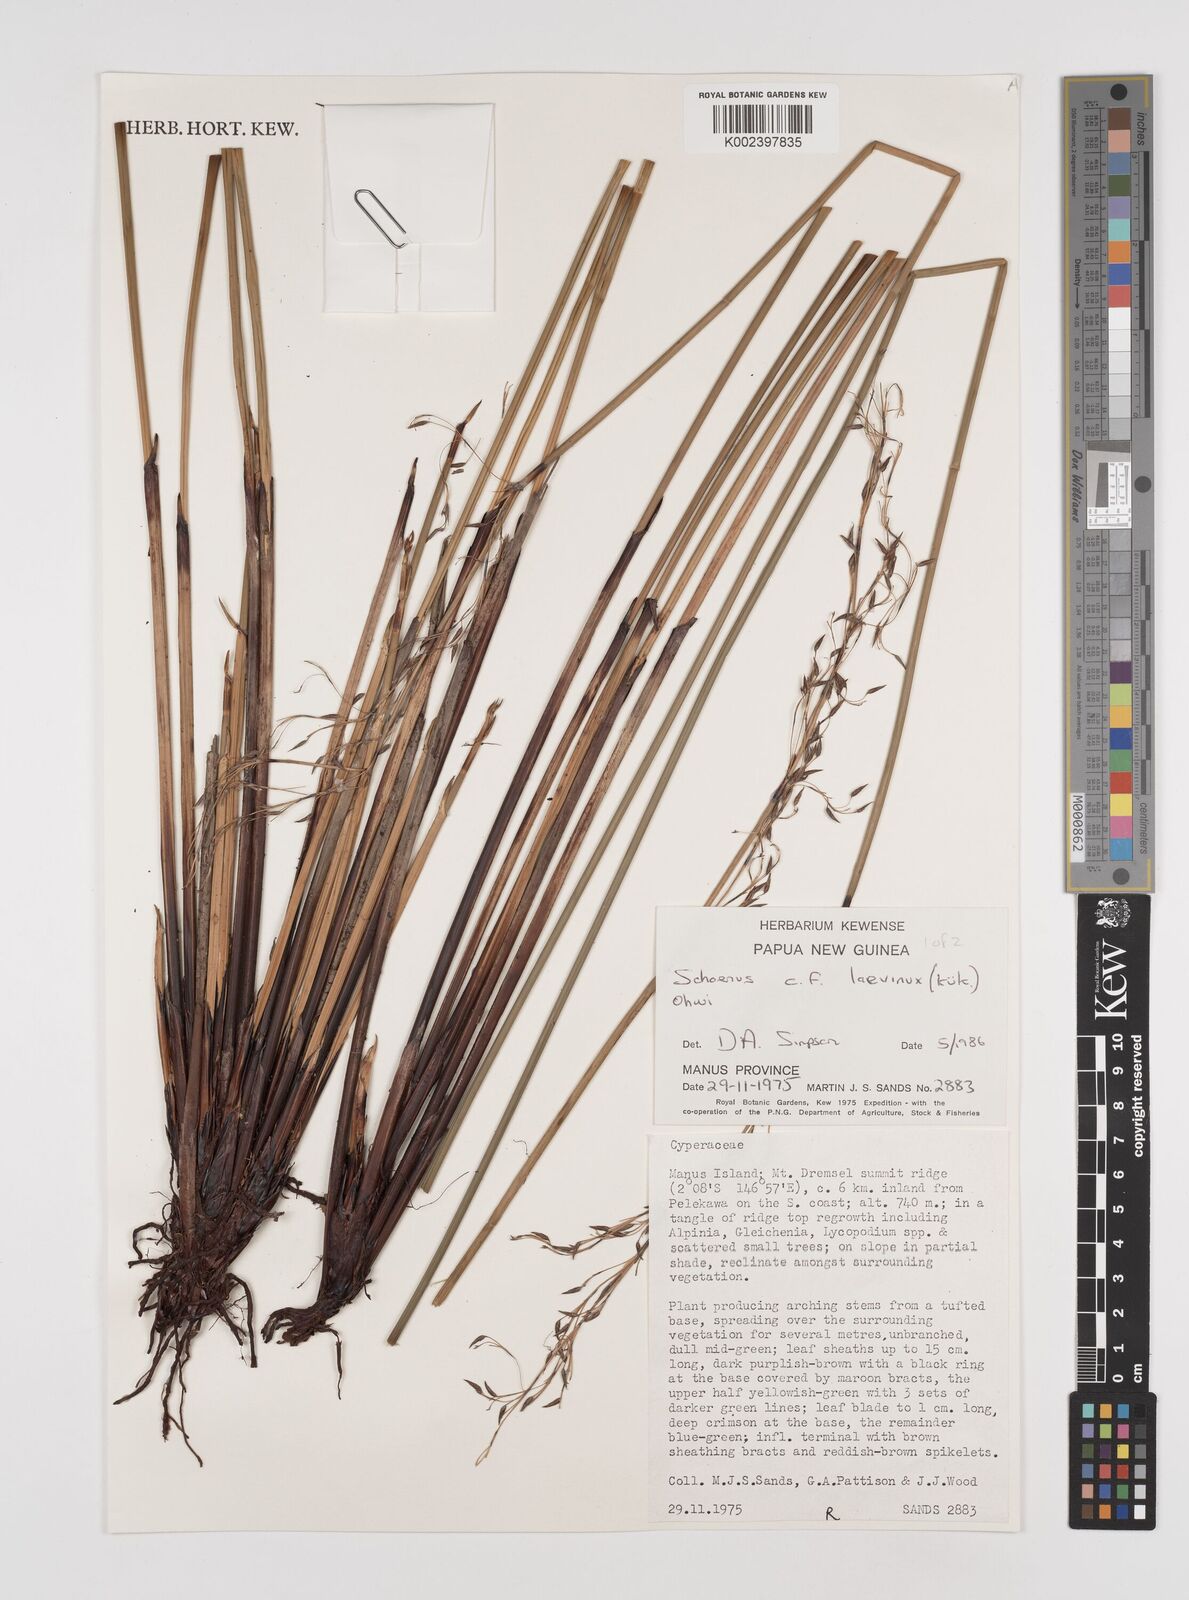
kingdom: Plantae
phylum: Tracheophyta
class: Liliopsida
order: Poales
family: Cyperaceae
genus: Schoenus
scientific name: Schoenus laevinux
